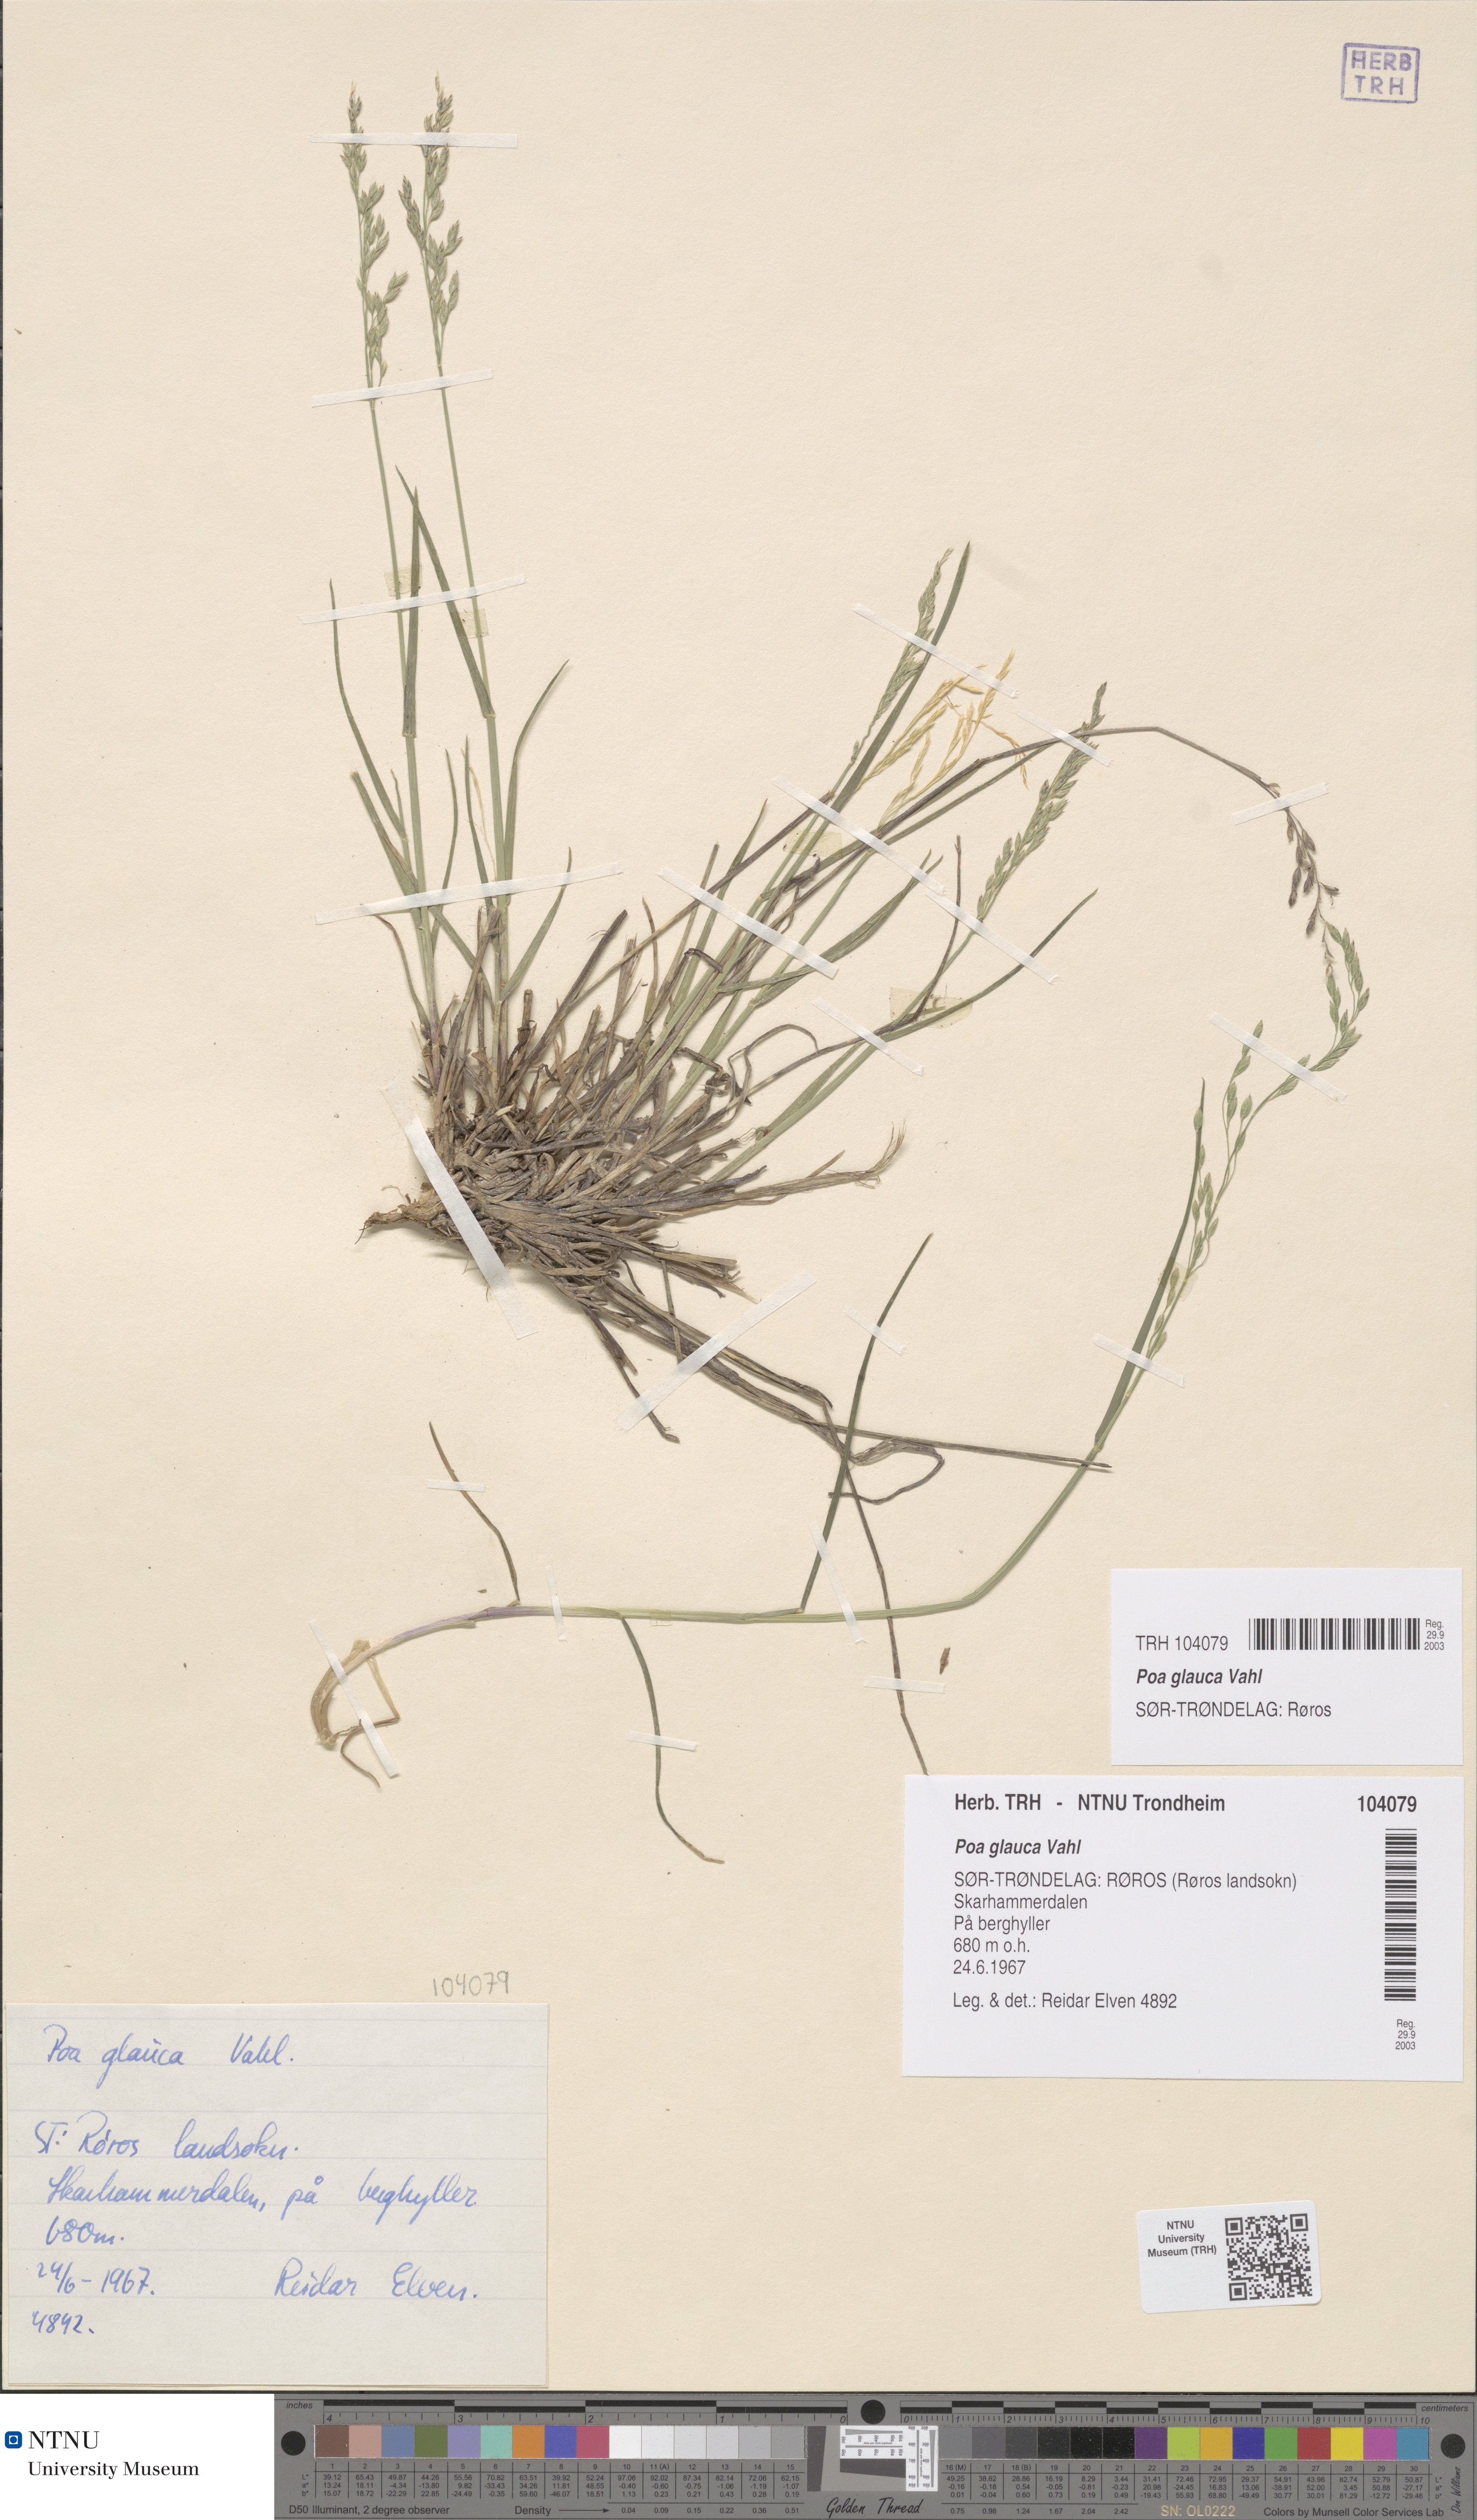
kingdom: Plantae
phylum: Tracheophyta
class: Liliopsida
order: Poales
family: Poaceae
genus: Poa
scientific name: Poa glauca
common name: Glaucous bluegrass
